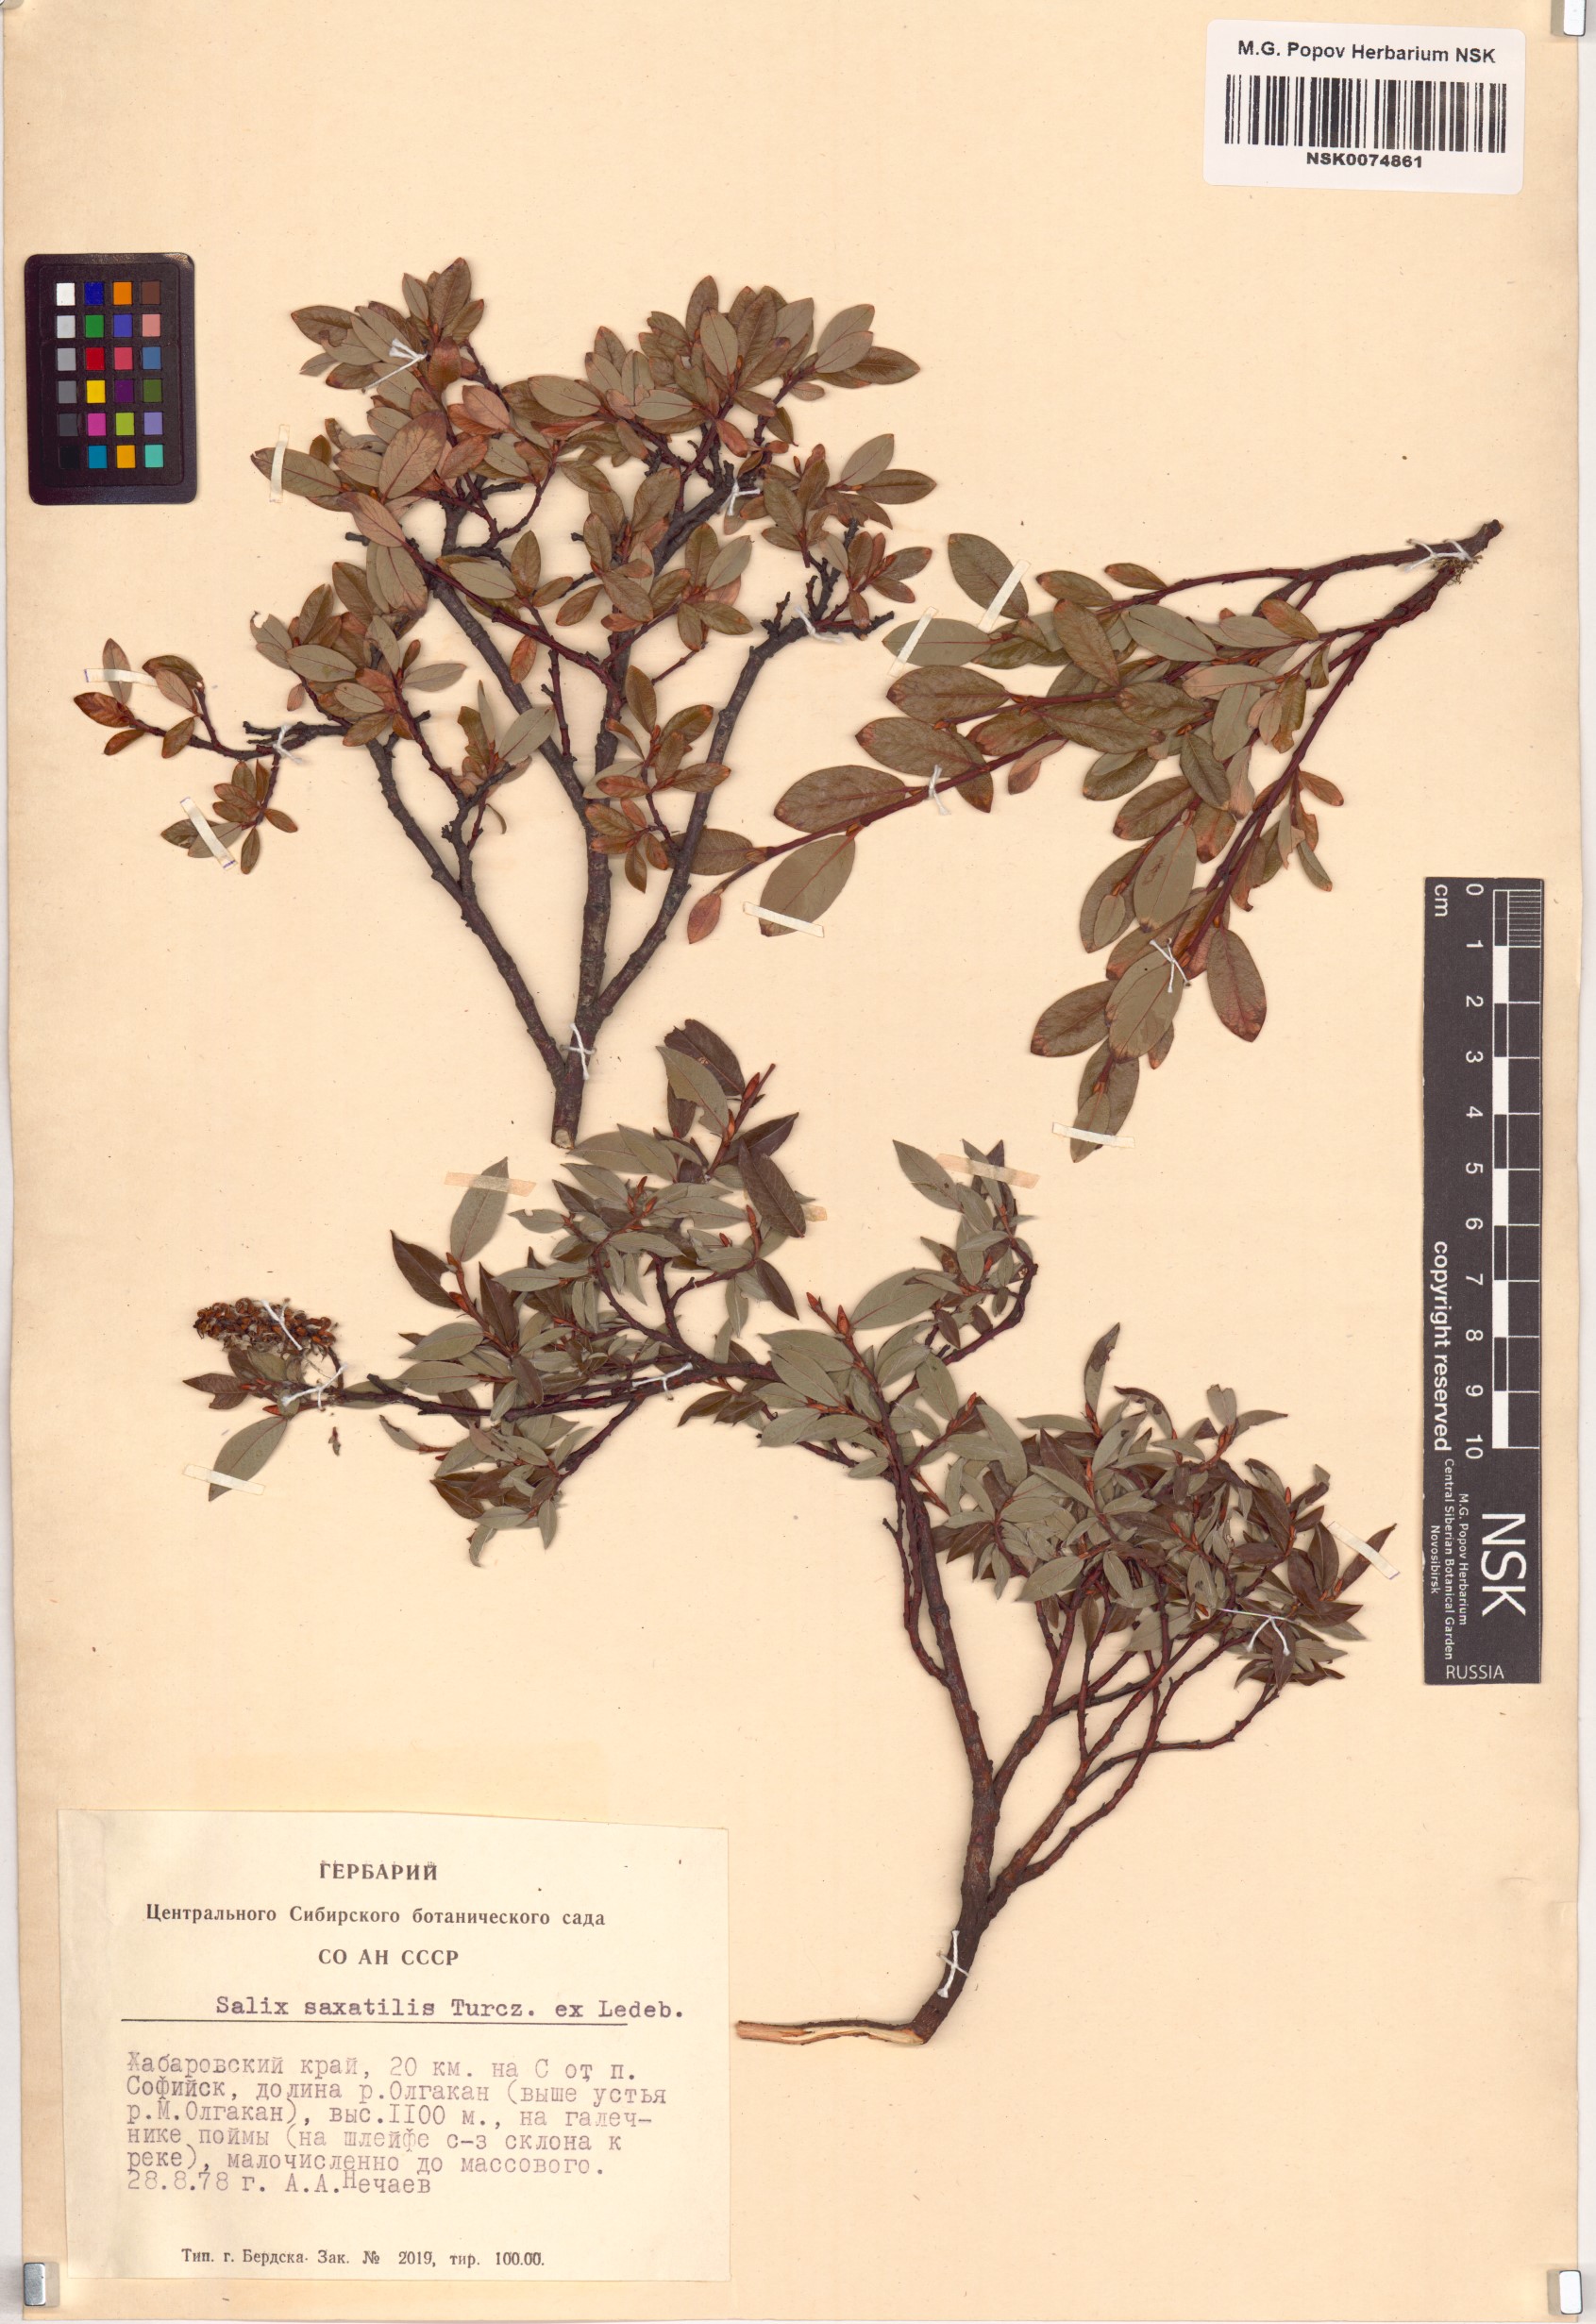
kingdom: Plantae
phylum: Tracheophyta
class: Magnoliopsida
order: Malpighiales
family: Salicaceae
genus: Salix
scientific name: Salix saxatilis
